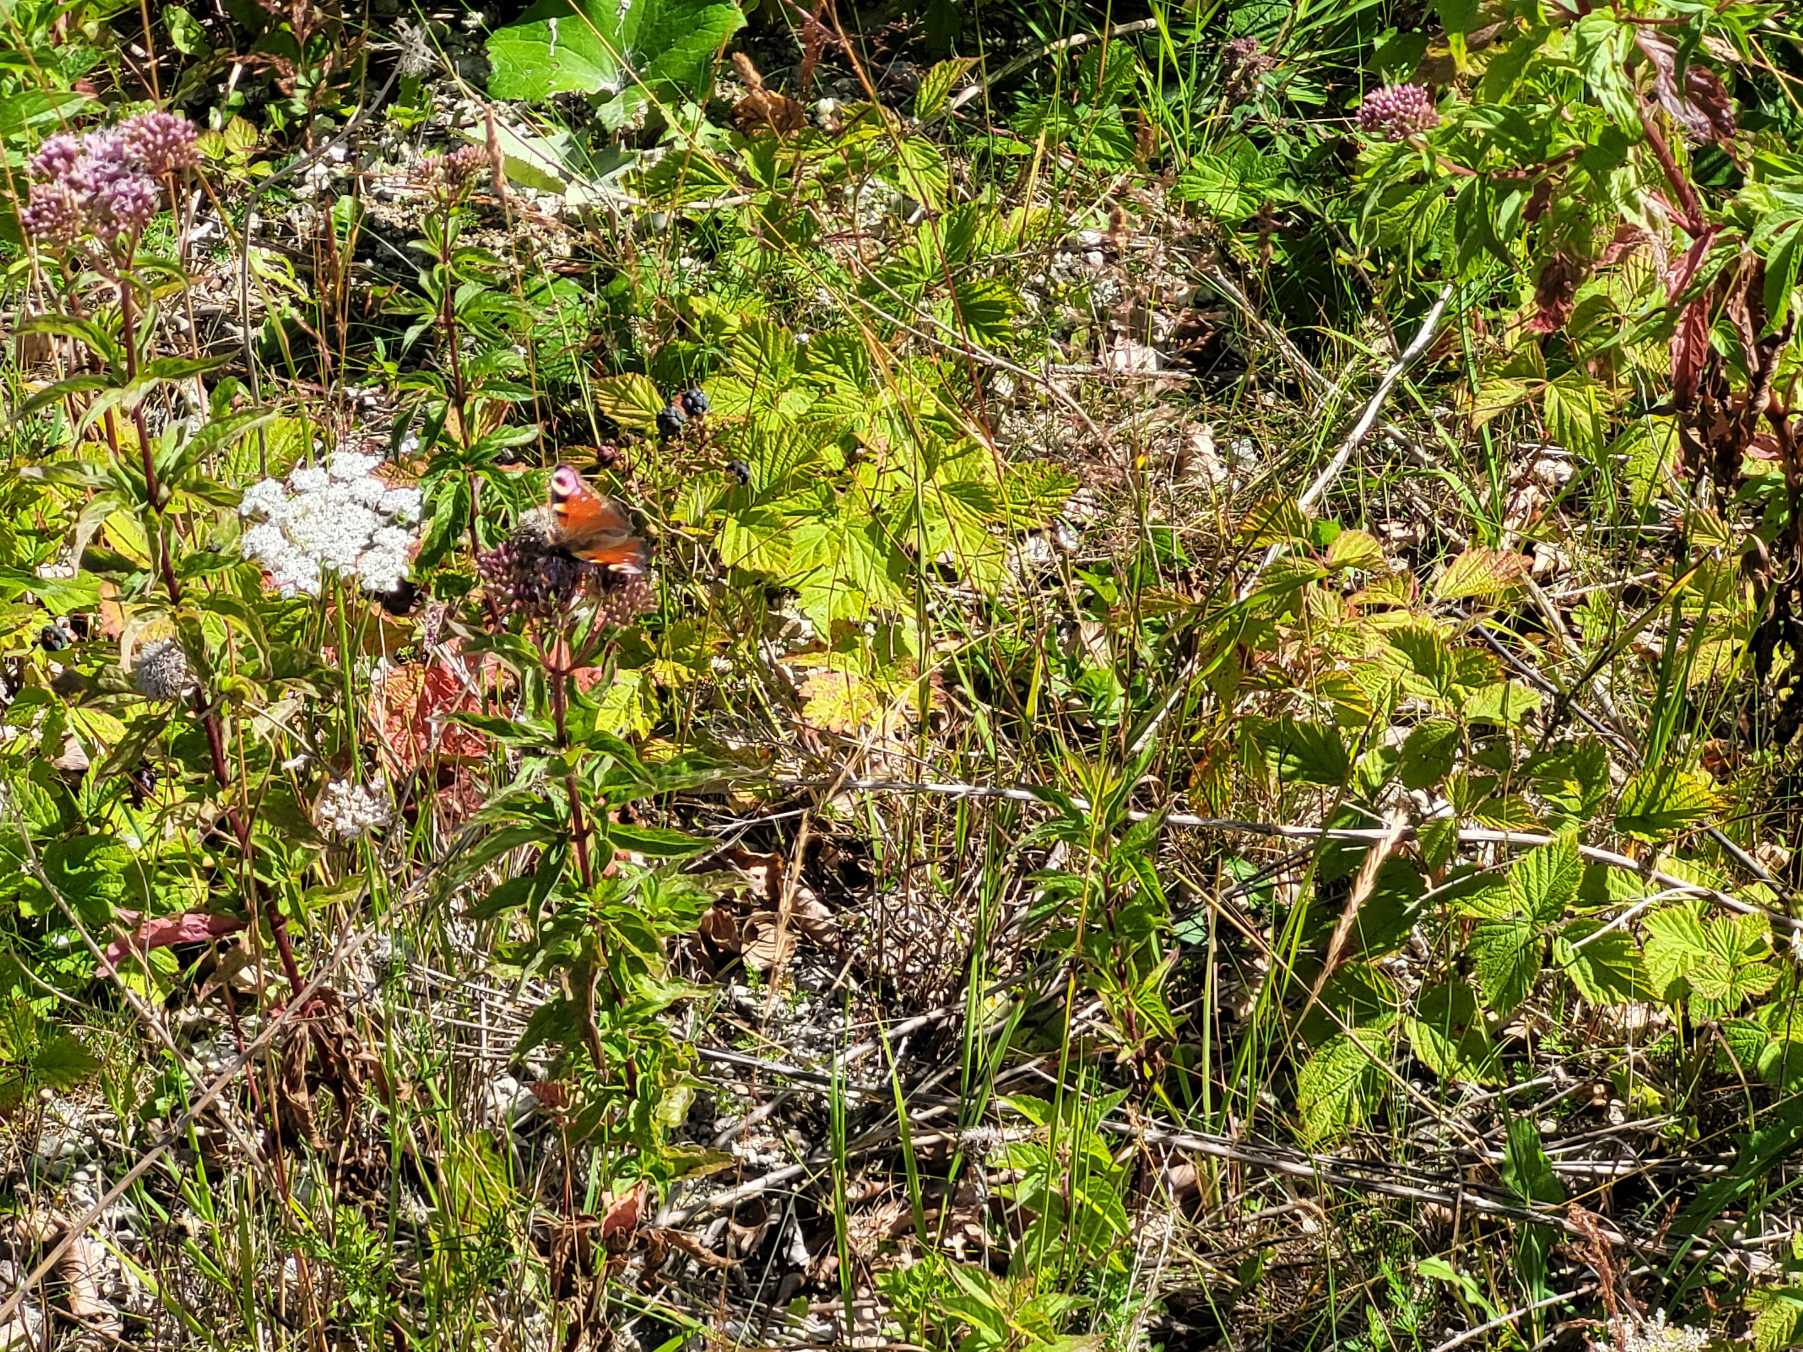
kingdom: Animalia
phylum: Arthropoda
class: Insecta
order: Lepidoptera
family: Nymphalidae
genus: Aglais
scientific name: Aglais io
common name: Dagpåfugleøje
